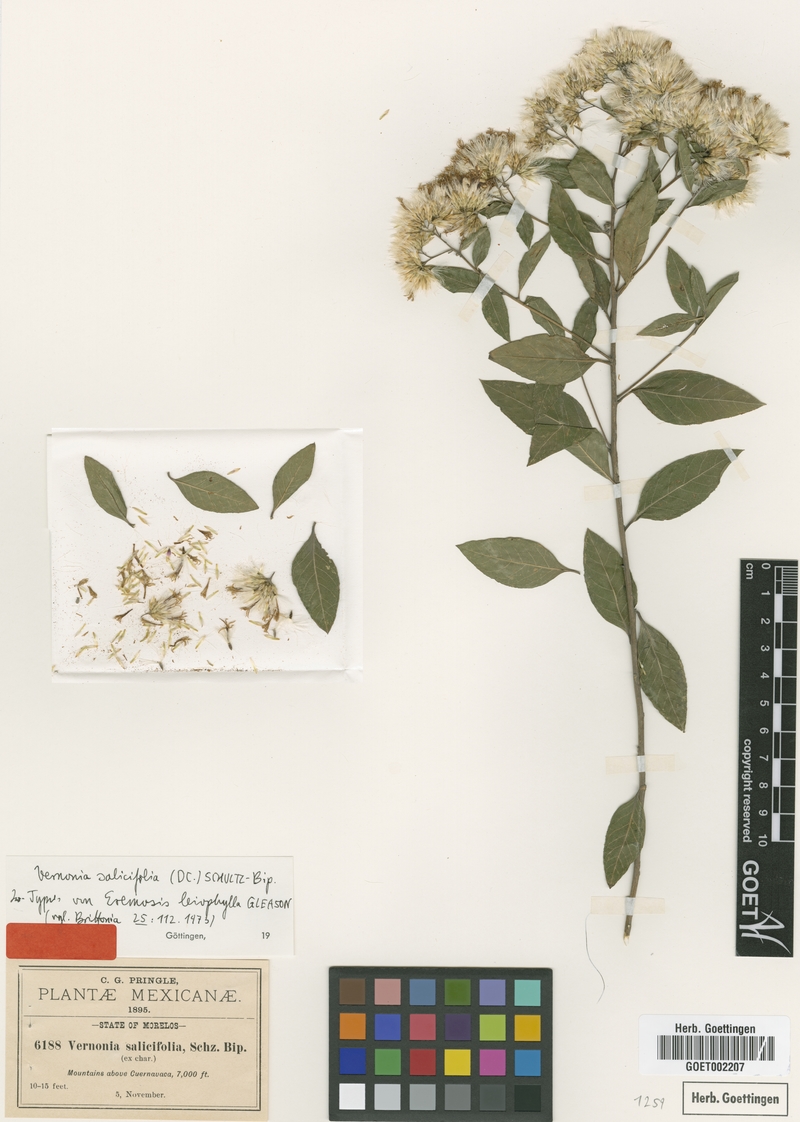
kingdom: Plantae
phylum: Tracheophyta
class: Magnoliopsida
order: Asterales
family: Asteraceae
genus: Eremosis
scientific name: Eremosis corymbosa
